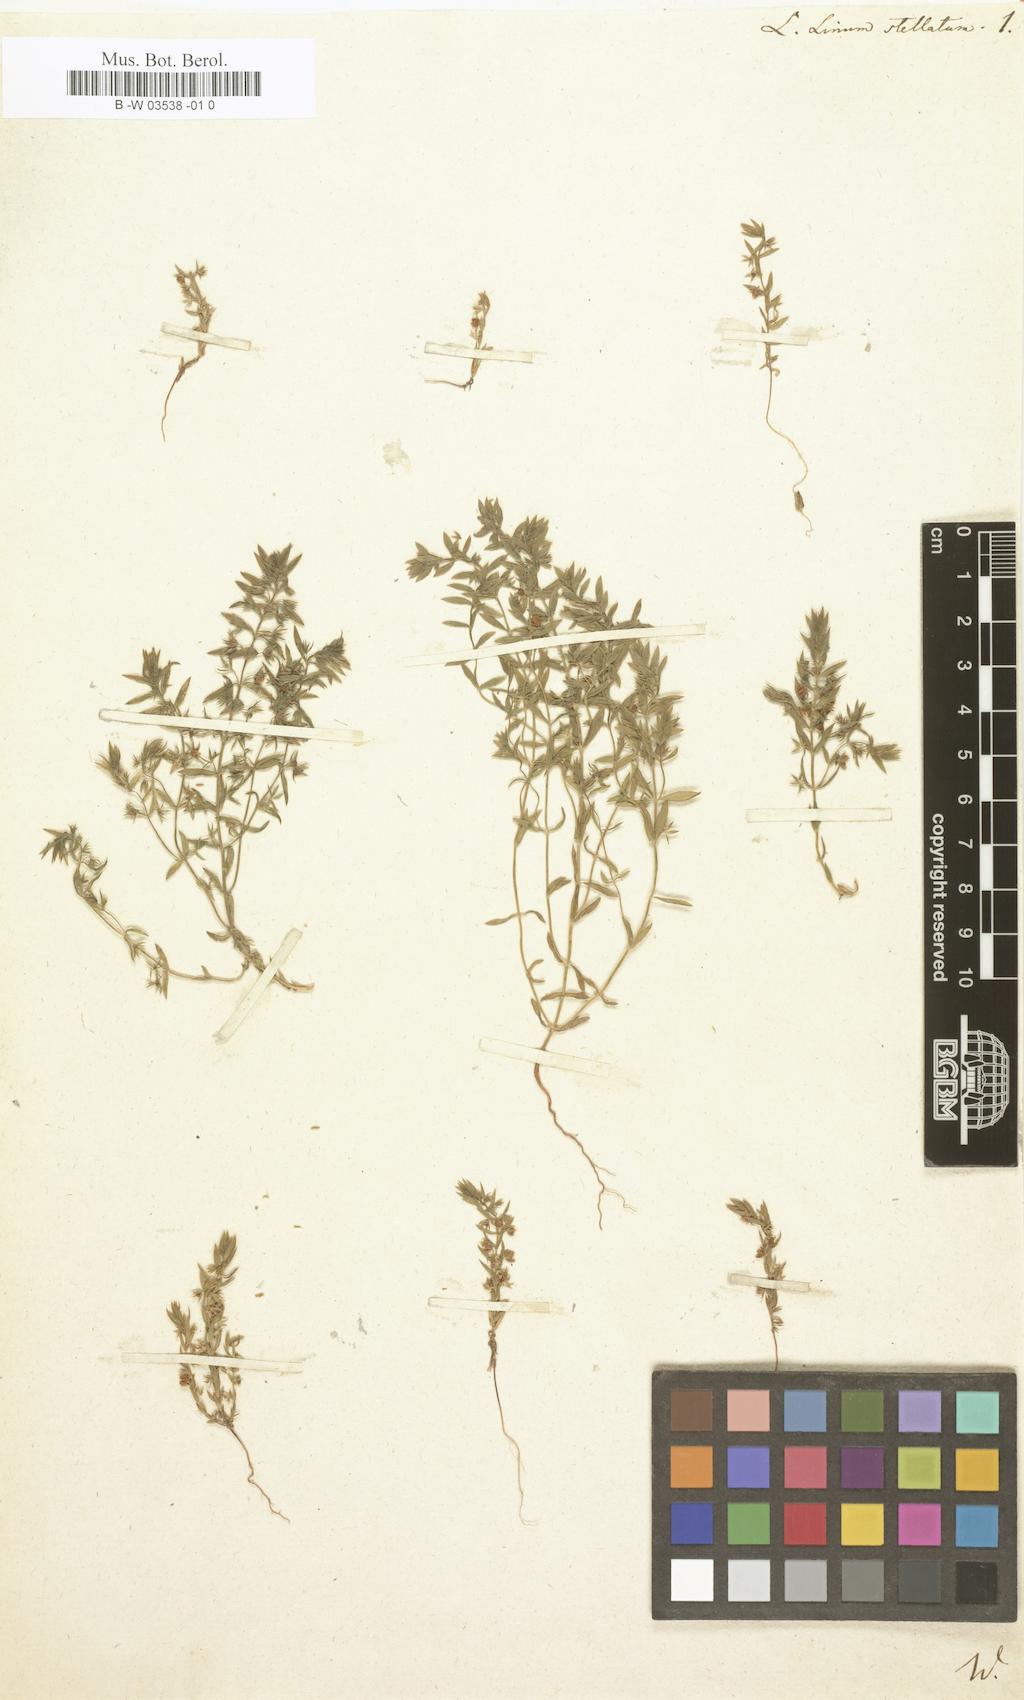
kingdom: Plantae
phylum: Tracheophyta
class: Magnoliopsida
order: Ericales
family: Primulaceae
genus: Lysimachia
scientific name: Lysimachia linum-stellatum
